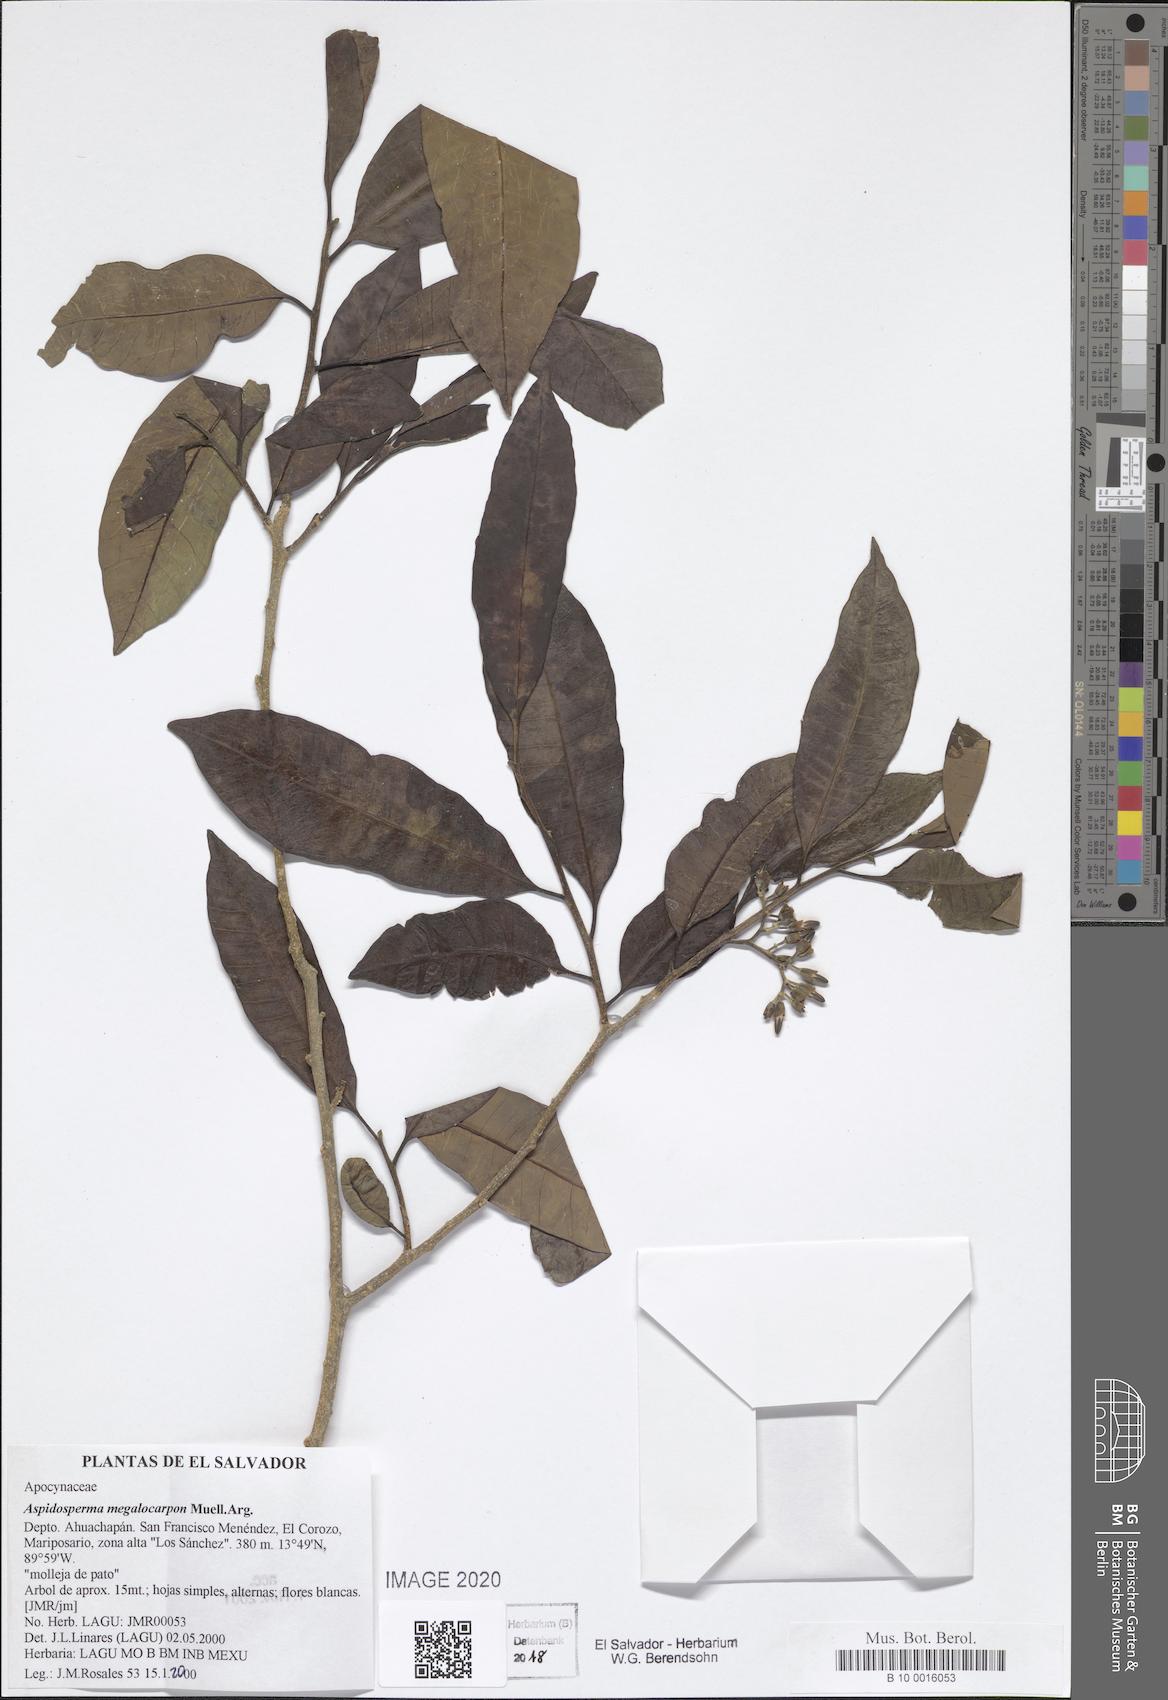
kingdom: Plantae
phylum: Tracheophyta
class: Magnoliopsida
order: Gentianales
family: Apocynaceae
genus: Aspidosperma
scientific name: Aspidosperma megalocarpon
